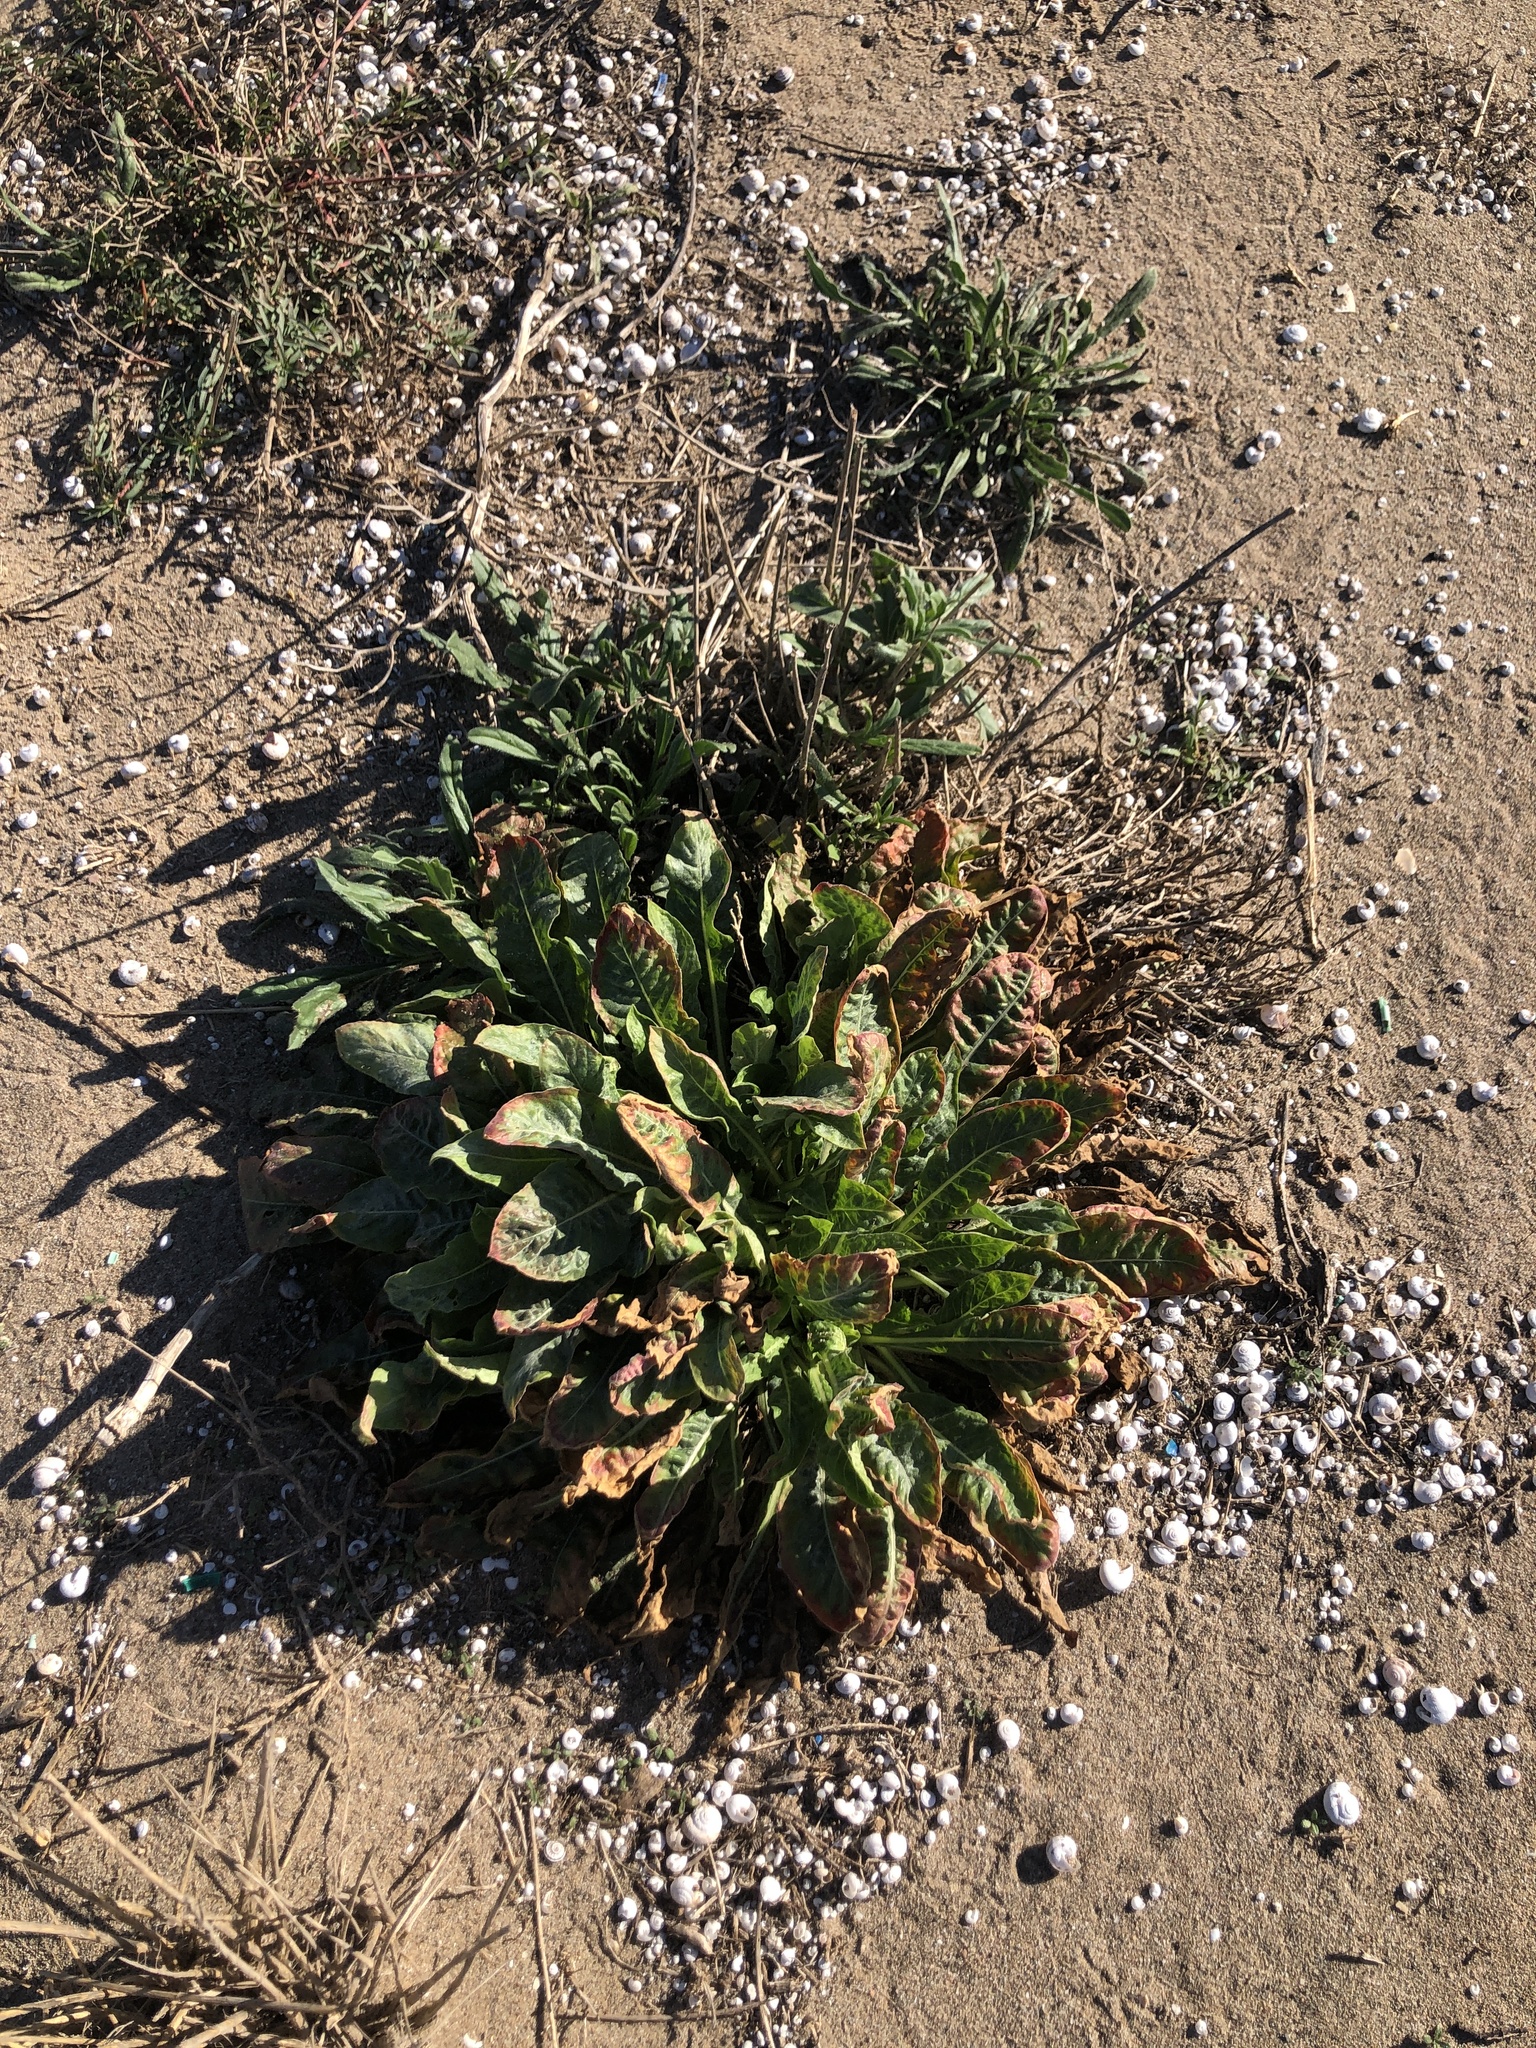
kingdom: Plantae
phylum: Tracheophyta
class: Magnoliopsida
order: Myrtales
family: Onagraceae
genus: Oenothera
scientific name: Oenothera glazioviana
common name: Large-flowered evening-primrose
